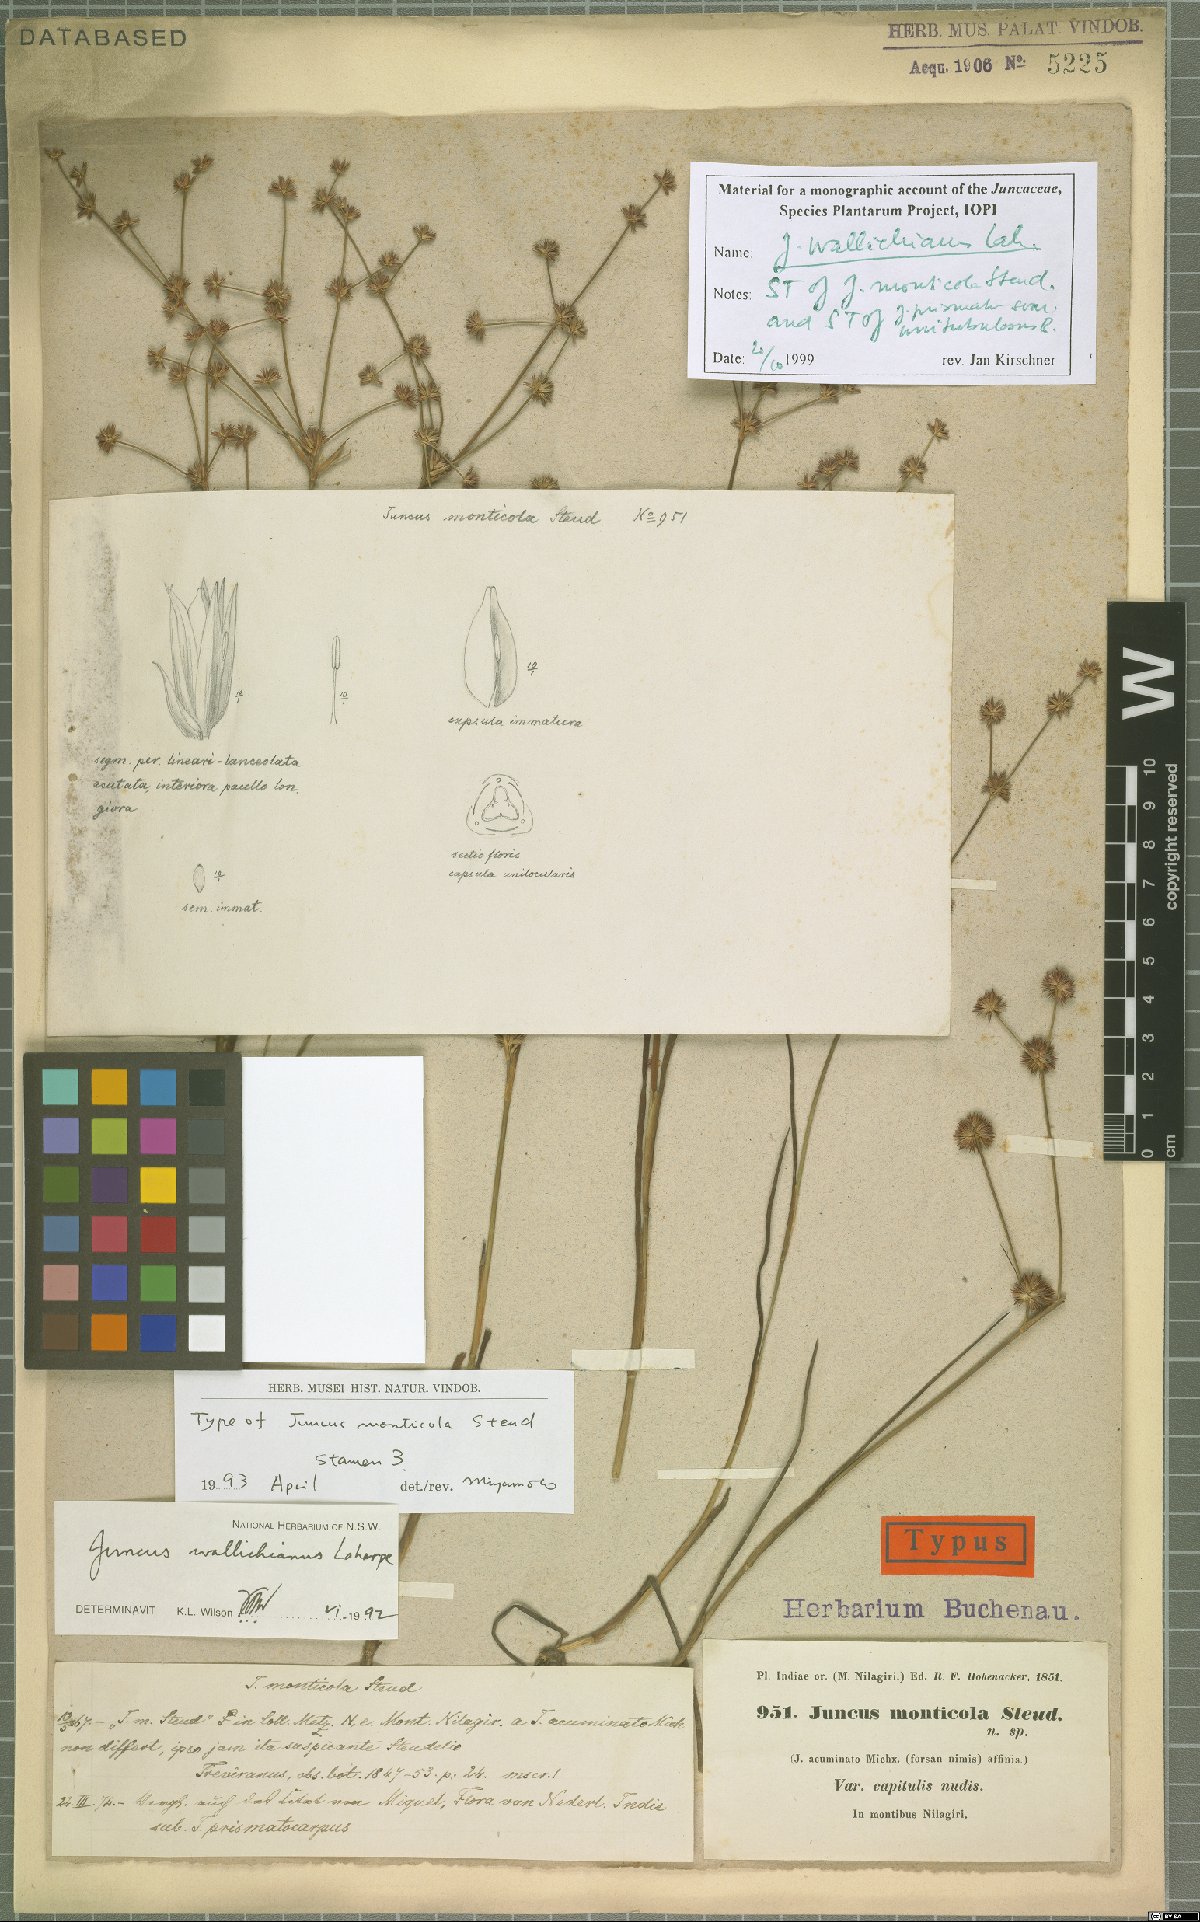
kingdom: Plantae
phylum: Tracheophyta
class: Liliopsida
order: Poales
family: Juncaceae
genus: Juncus
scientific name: Juncus wallichianus
